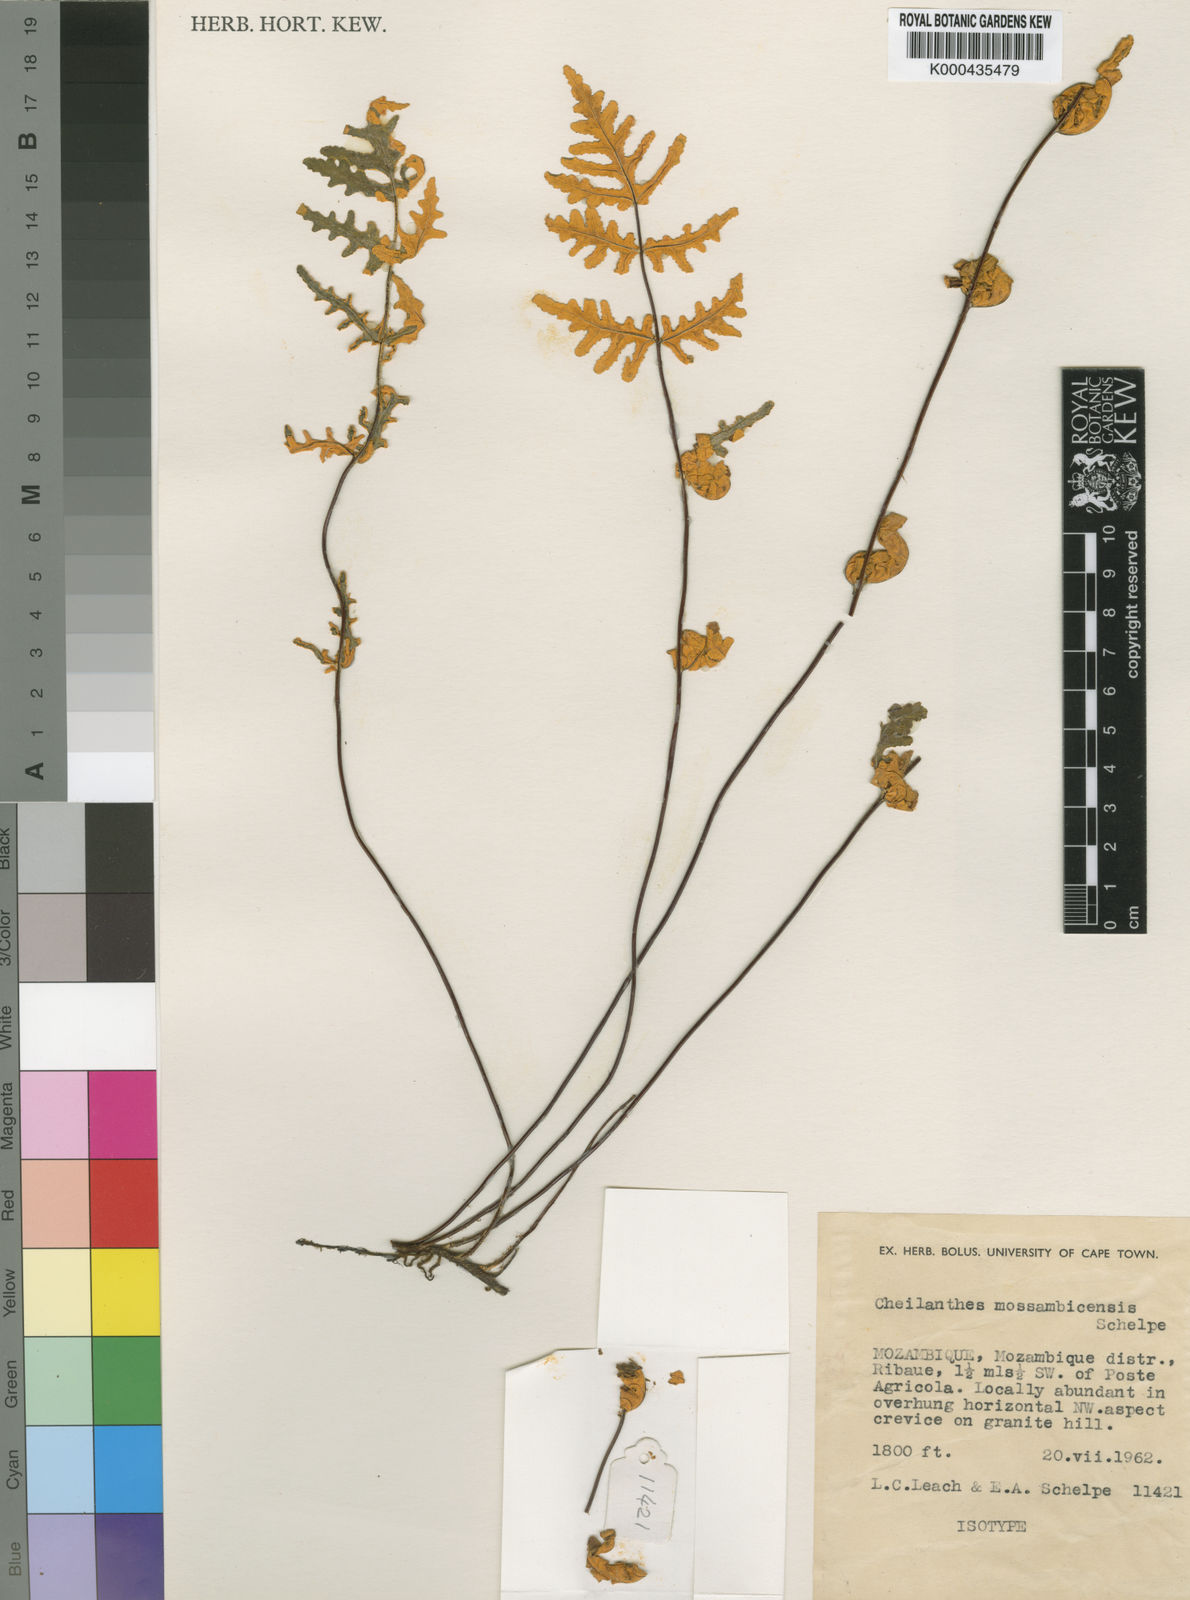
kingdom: Plantae
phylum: Tracheophyta
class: Polypodiopsida
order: Polypodiales
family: Pteridaceae
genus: Aleuritopteris
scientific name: Aleuritopteris welwitschii
